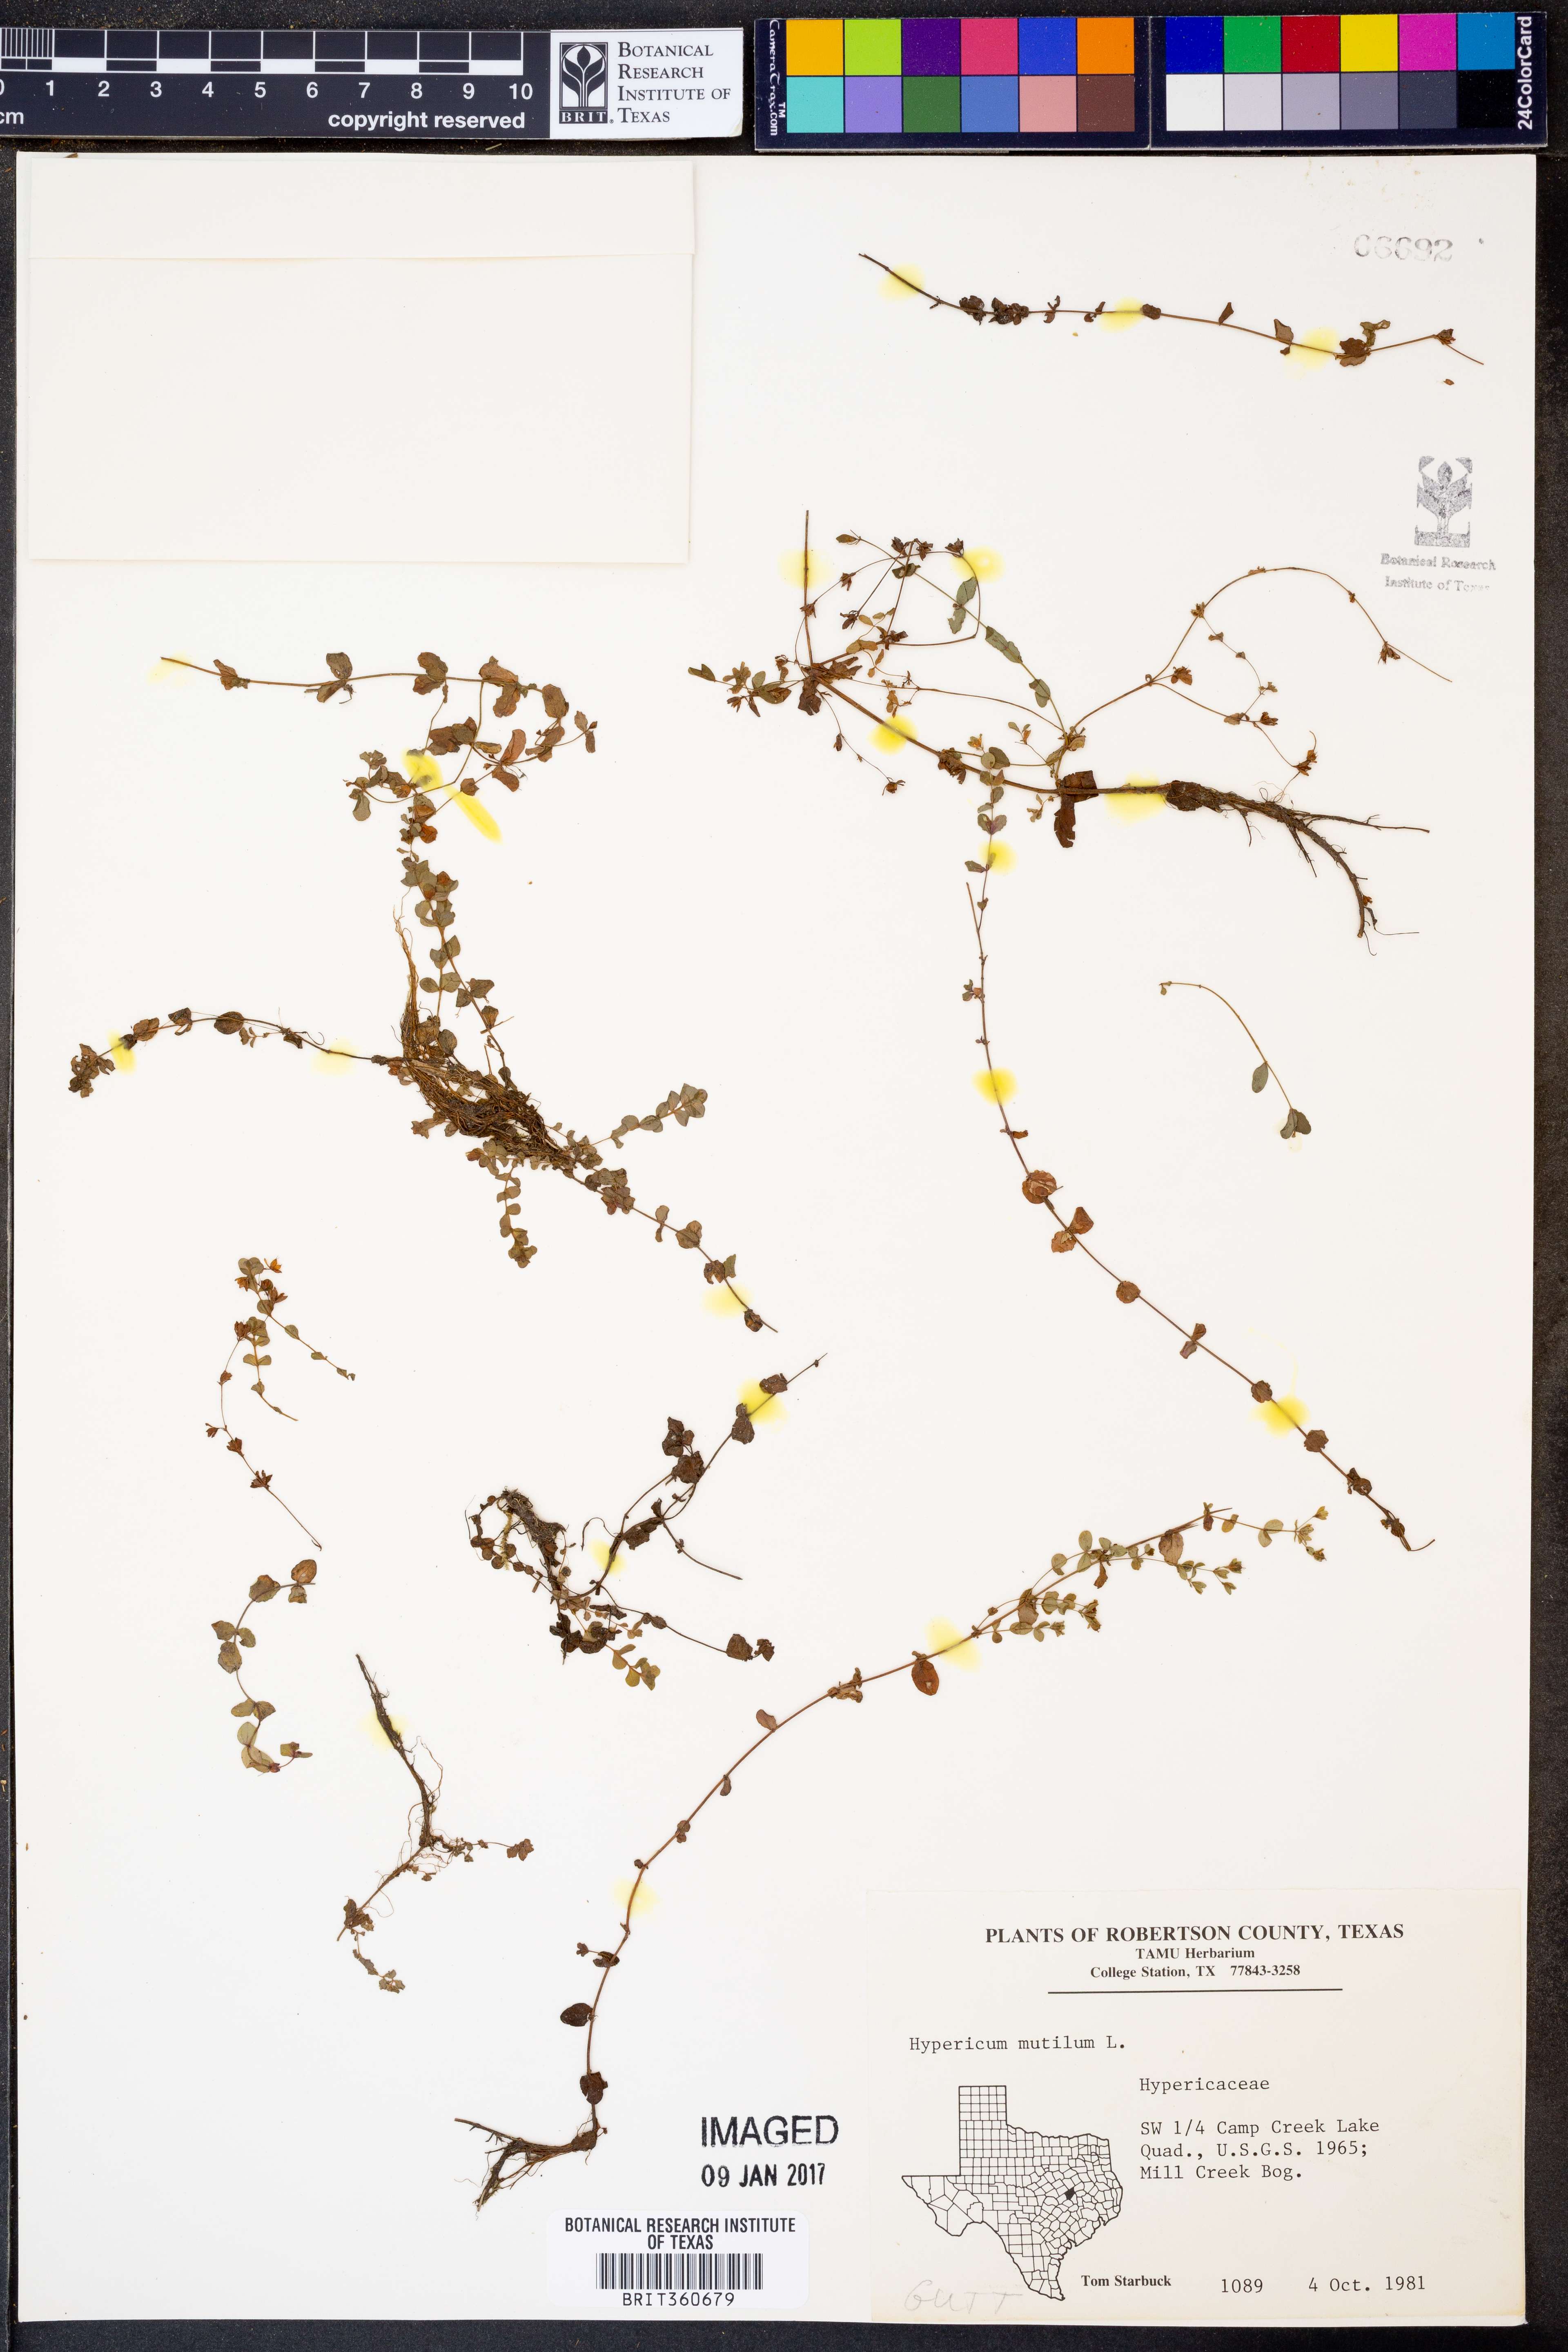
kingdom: Plantae
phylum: Tracheophyta
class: Magnoliopsida
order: Malpighiales
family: Hypericaceae
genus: Hypericum
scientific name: Hypericum mutilum
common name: Dwarf st. john's-wort
